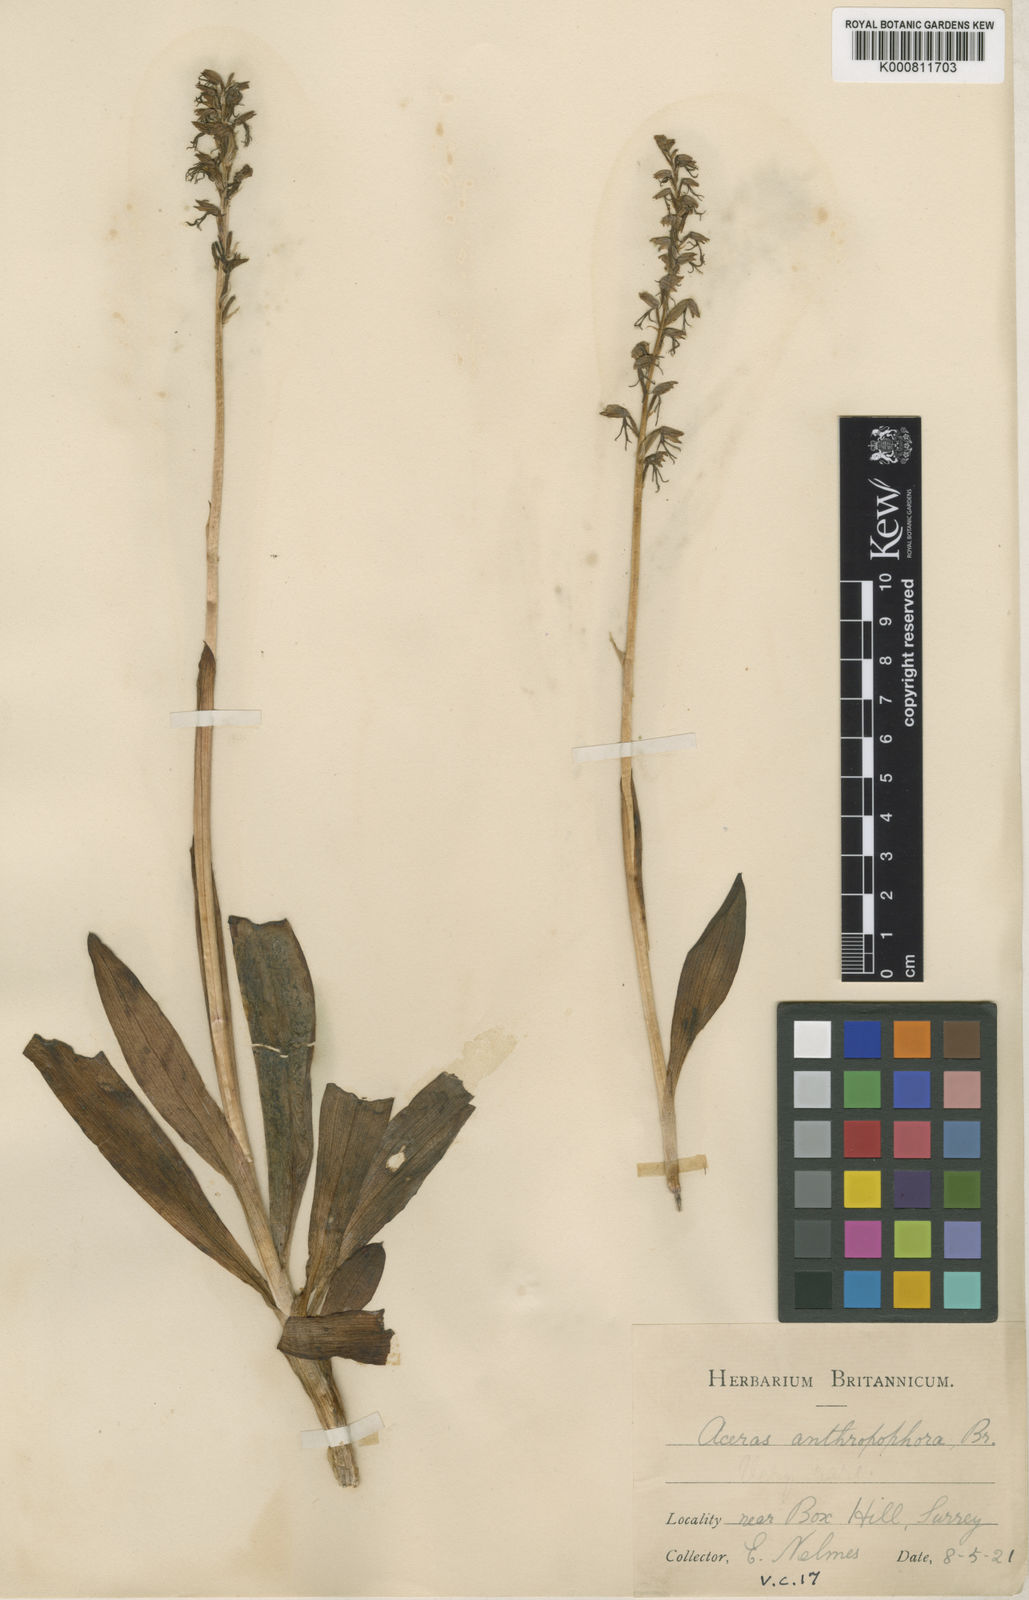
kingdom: Plantae
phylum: Tracheophyta
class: Liliopsida
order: Asparagales
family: Orchidaceae
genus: Orchis
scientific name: Orchis
